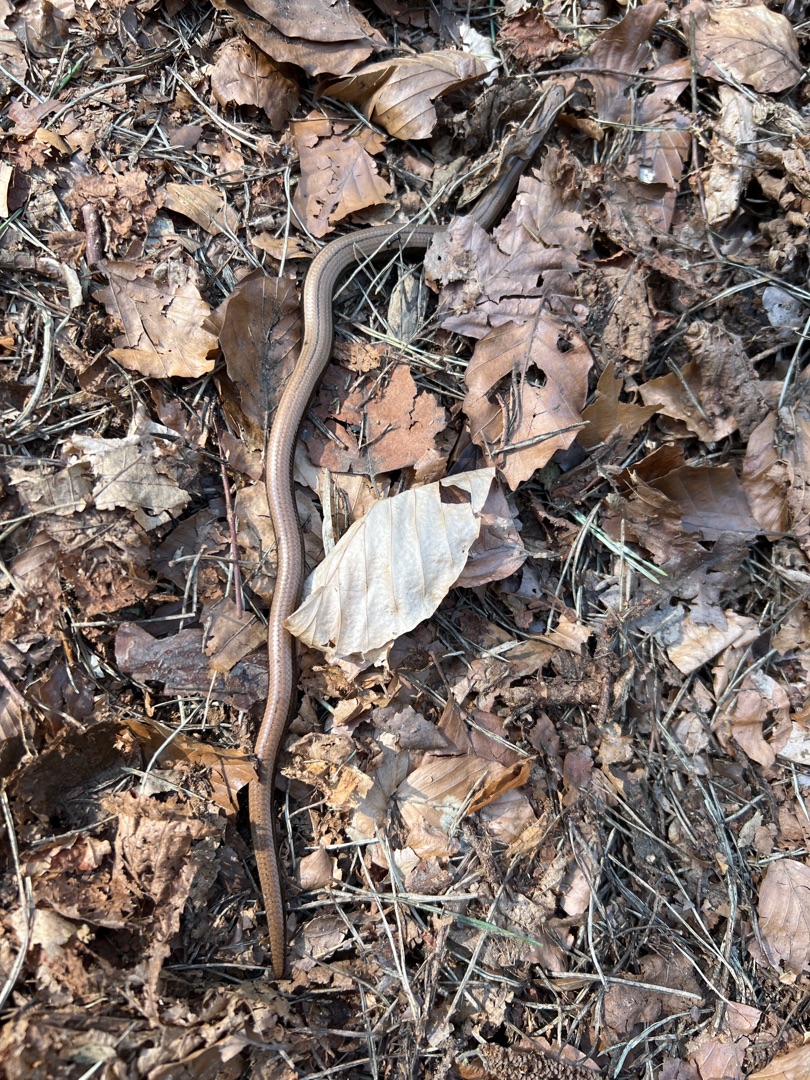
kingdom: Animalia
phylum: Chordata
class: Squamata
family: Anguidae
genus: Anguis
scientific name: Anguis fragilis
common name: Stålorm
